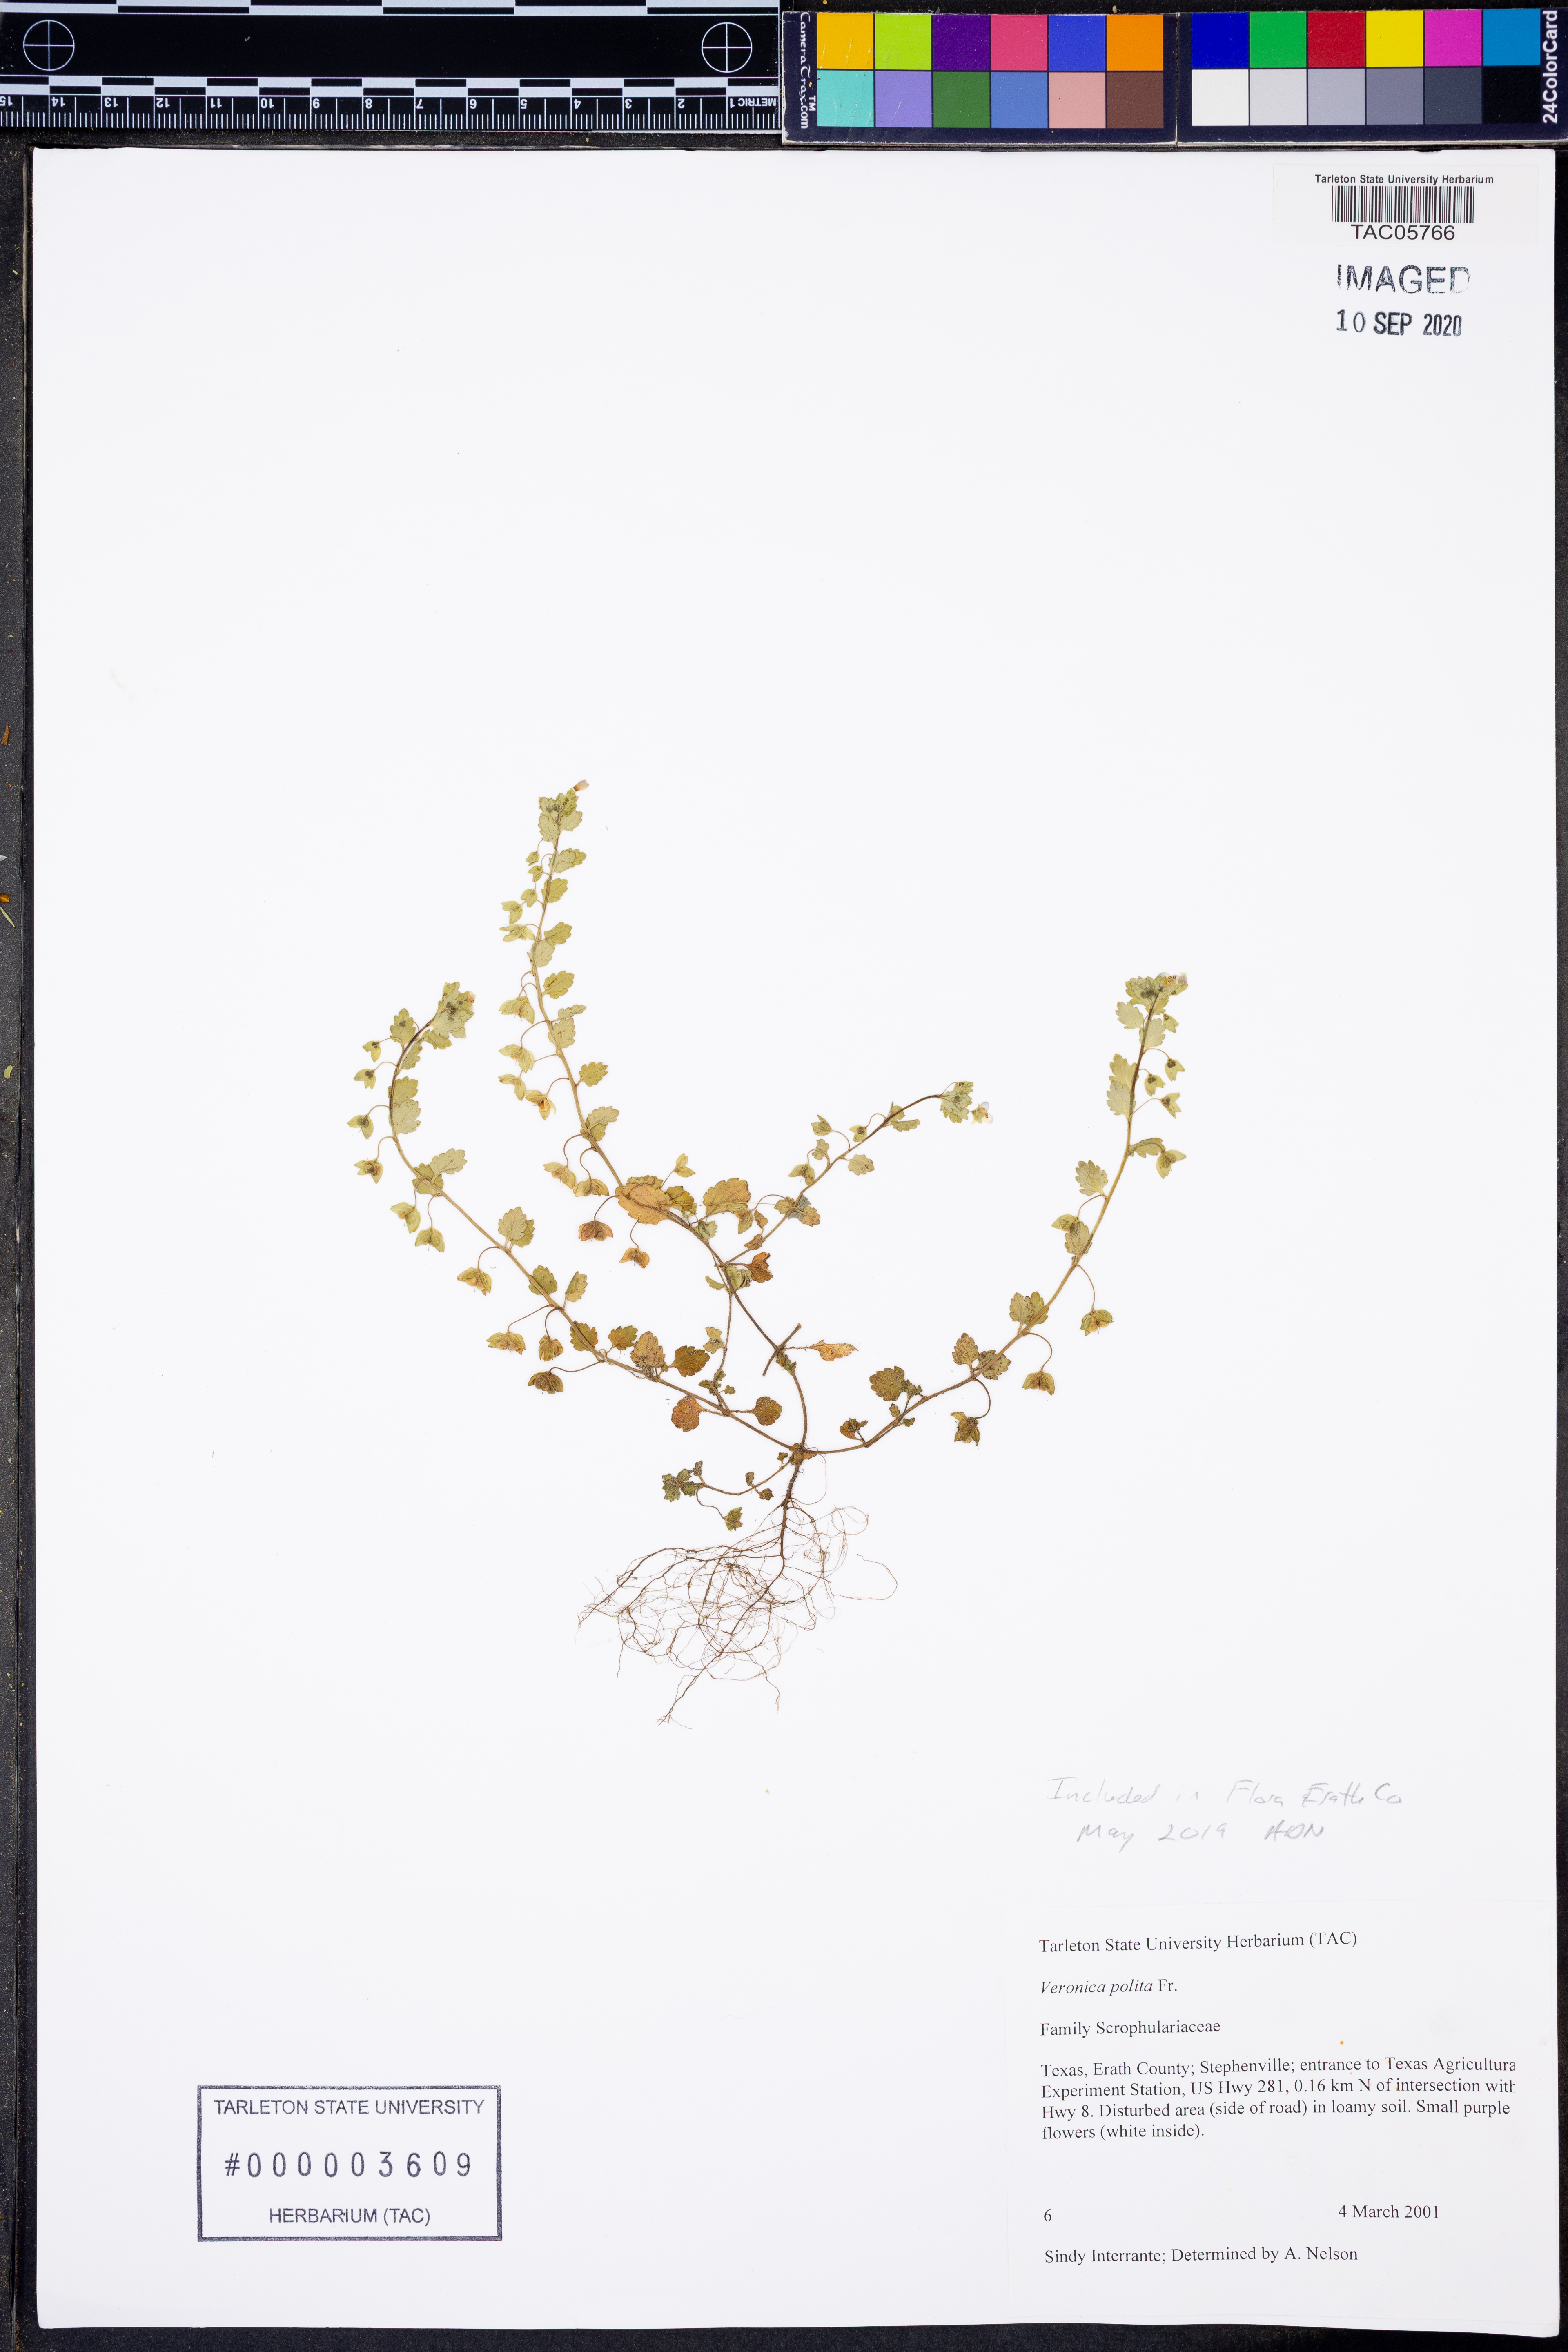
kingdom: Plantae
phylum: Tracheophyta
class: Magnoliopsida
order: Lamiales
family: Plantaginaceae
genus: Veronica
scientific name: Veronica polita
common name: Grey field-speedwell
